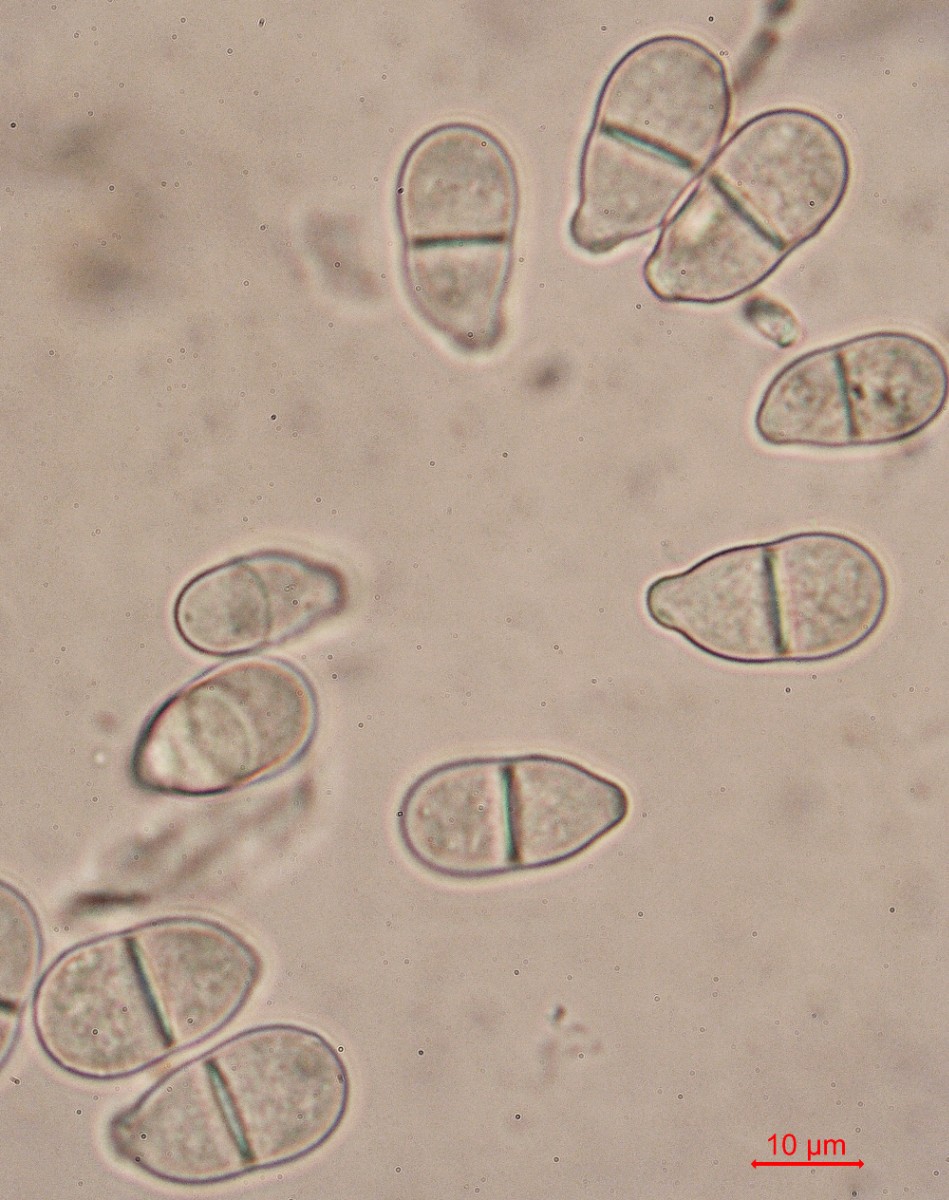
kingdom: Fungi
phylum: Ascomycota
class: Sordariomycetes
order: Hypocreales
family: Myrotheciomycetaceae
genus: Trichothecium
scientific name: Trichothecium roseum
